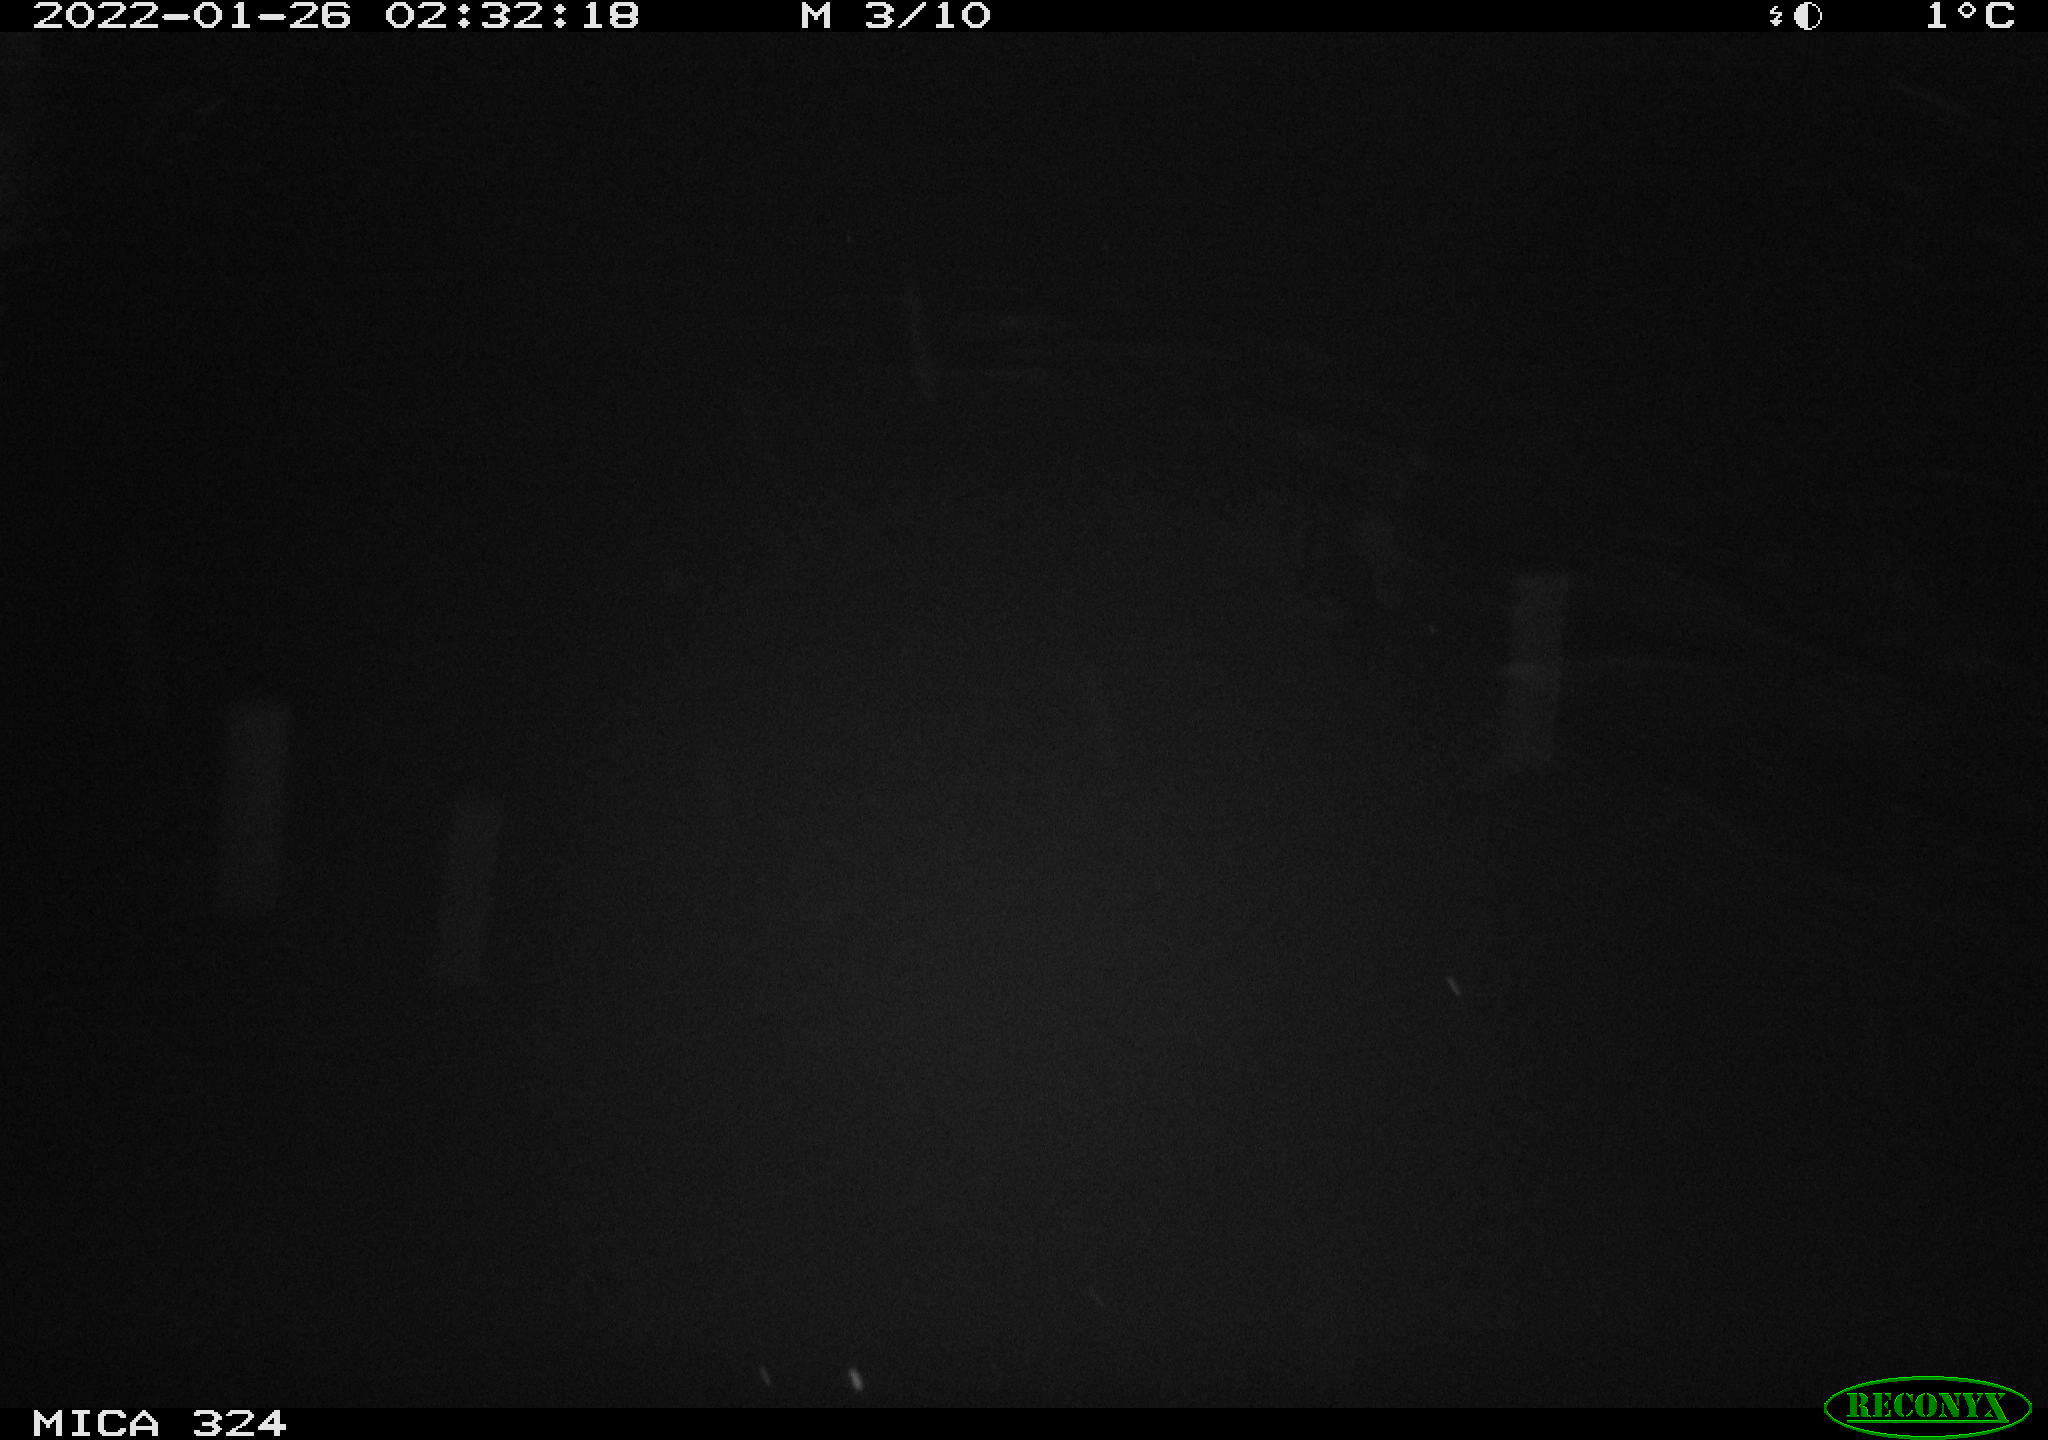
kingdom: Animalia
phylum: Chordata
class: Mammalia
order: Rodentia
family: Cricetidae
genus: Ondatra
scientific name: Ondatra zibethicus
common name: Muskrat
